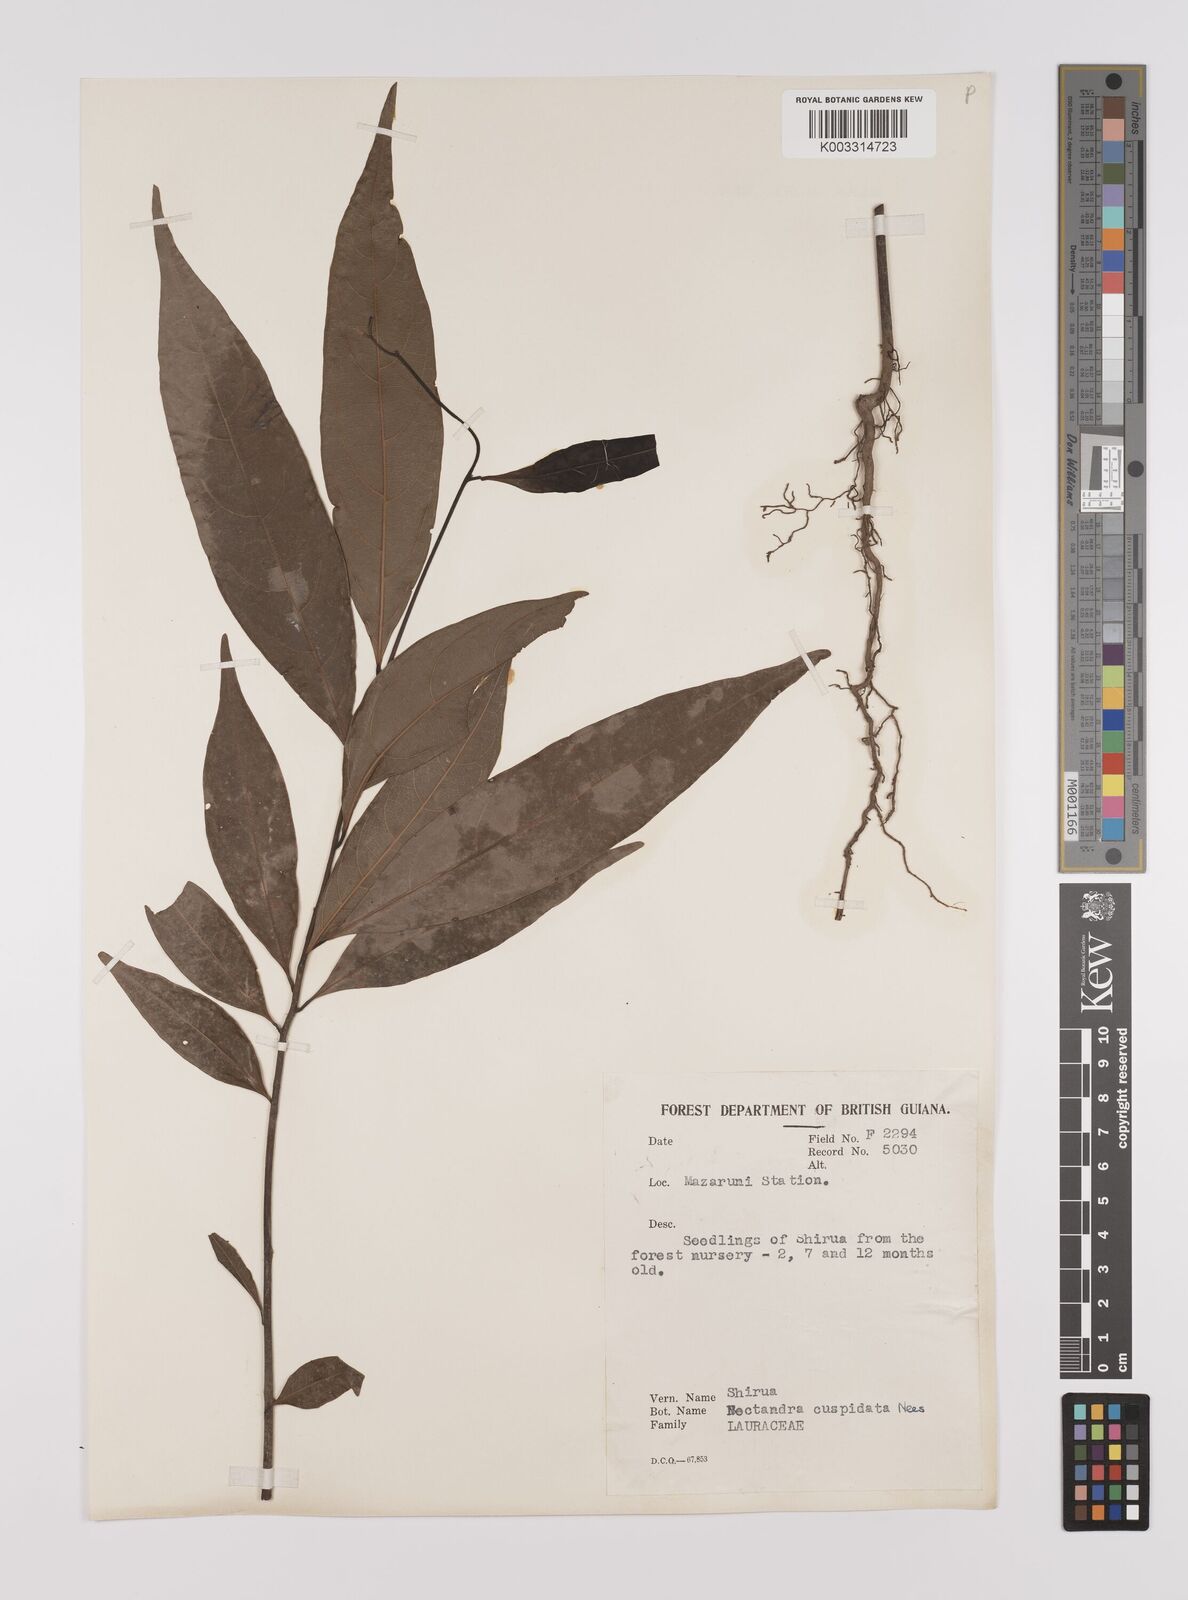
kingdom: Plantae
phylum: Tracheophyta
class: Magnoliopsida
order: Laurales
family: Lauraceae
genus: Nectandra
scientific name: Nectandra cuspidata
